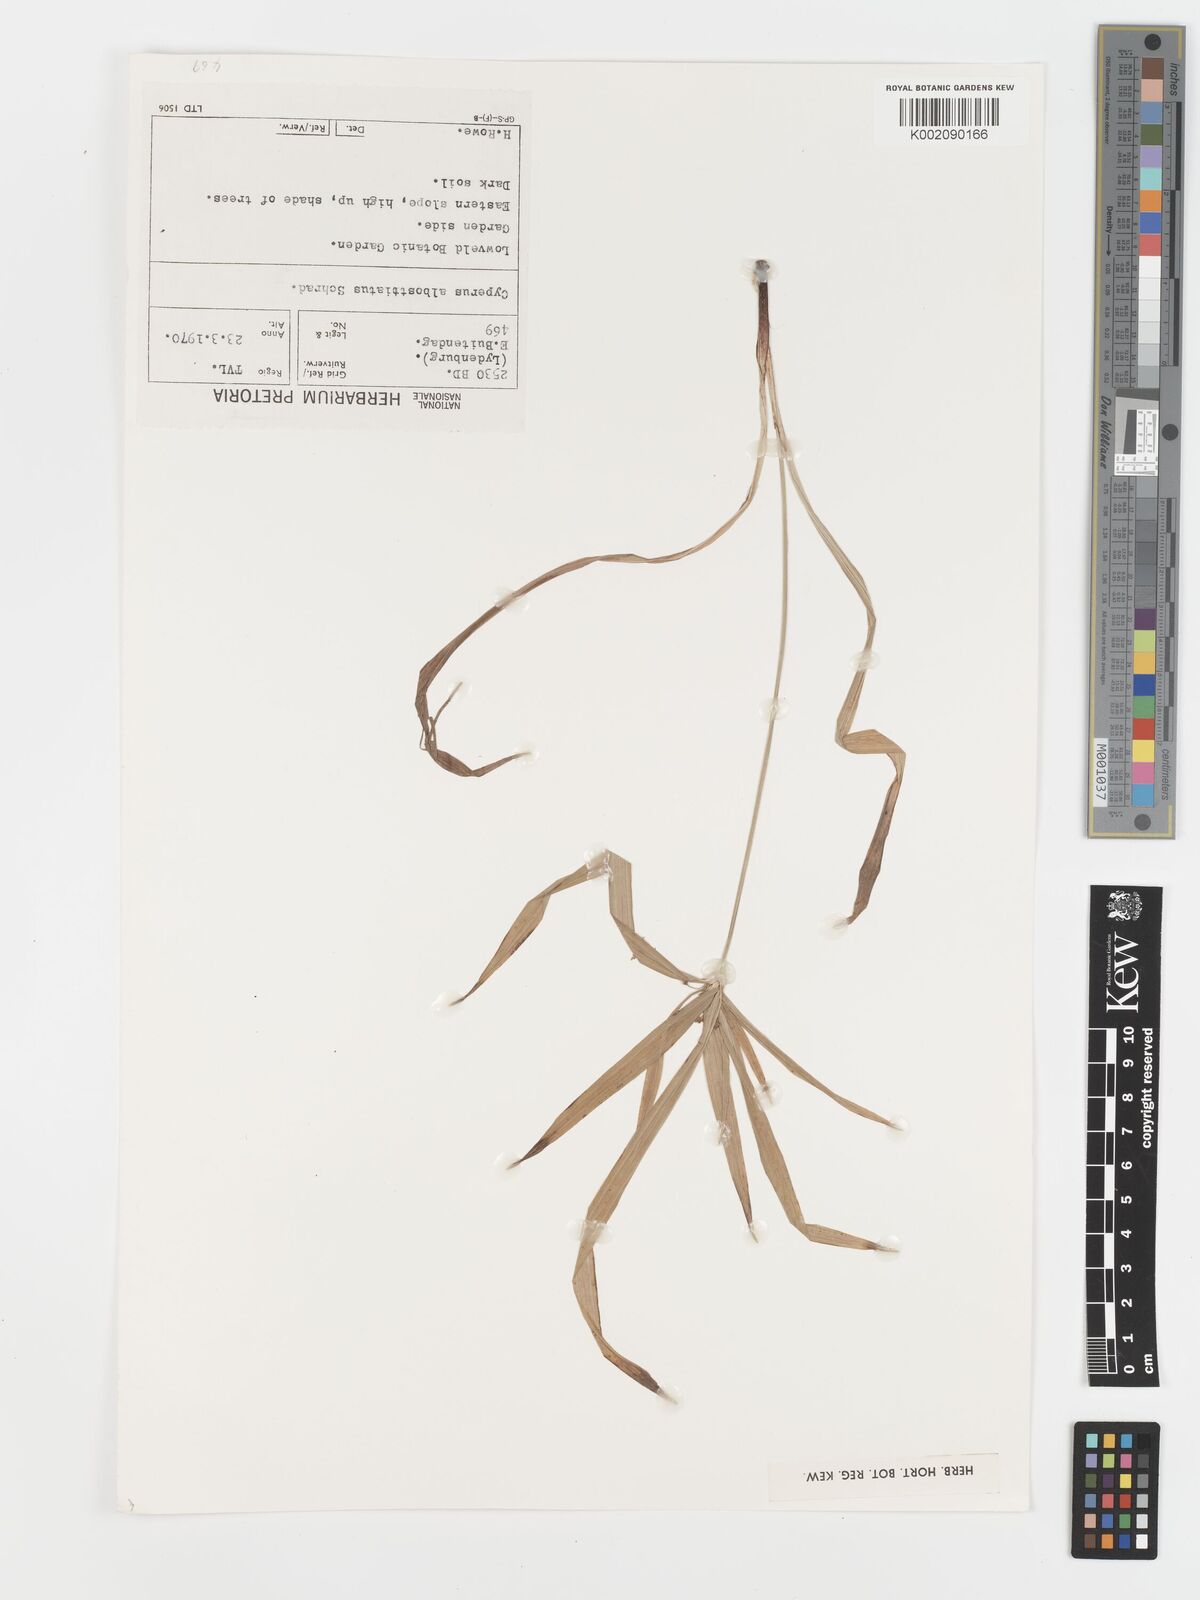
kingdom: Plantae
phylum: Tracheophyta
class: Liliopsida
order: Poales
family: Cyperaceae
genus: Cyperus
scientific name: Cyperus albostriatus
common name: Dwarf umbrella-grass
